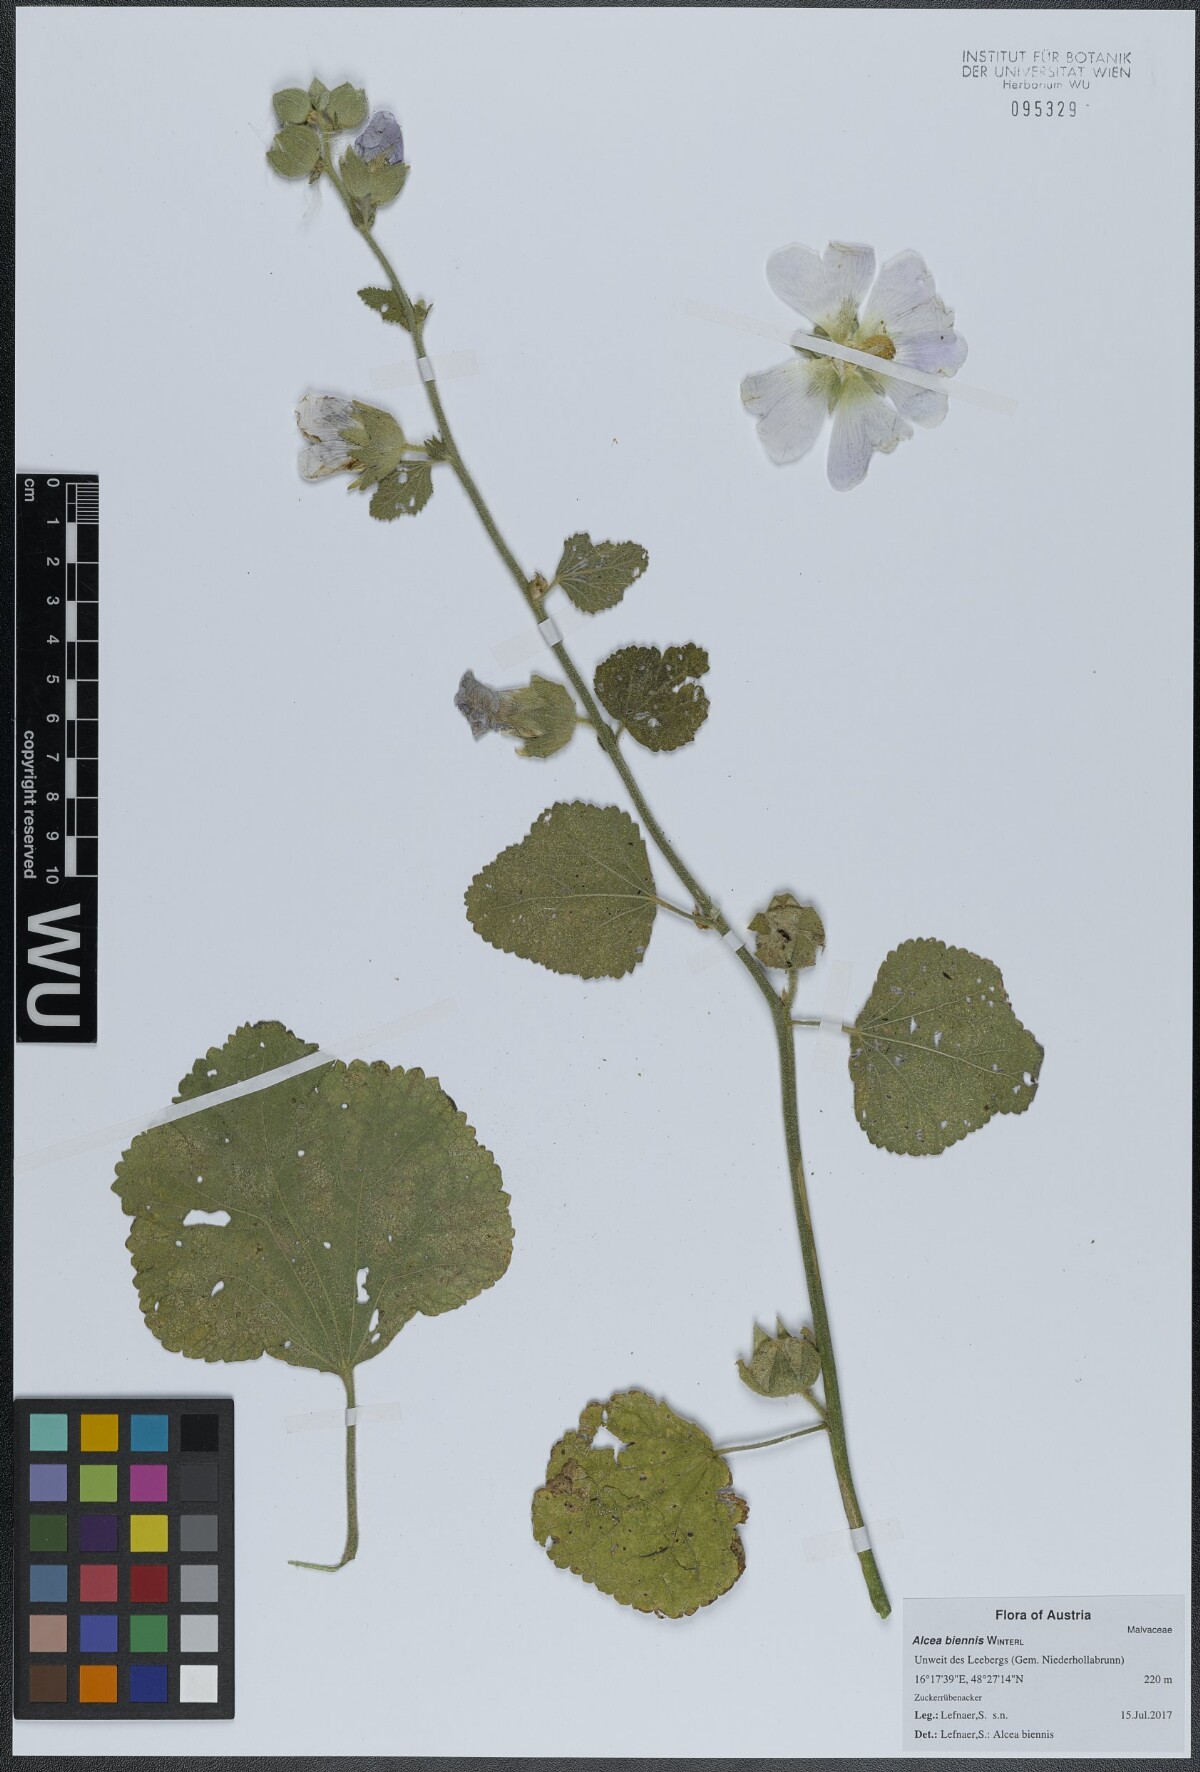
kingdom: Plantae
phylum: Tracheophyta
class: Magnoliopsida
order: Malvales
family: Malvaceae
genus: Alcea
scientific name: Alcea biennis
